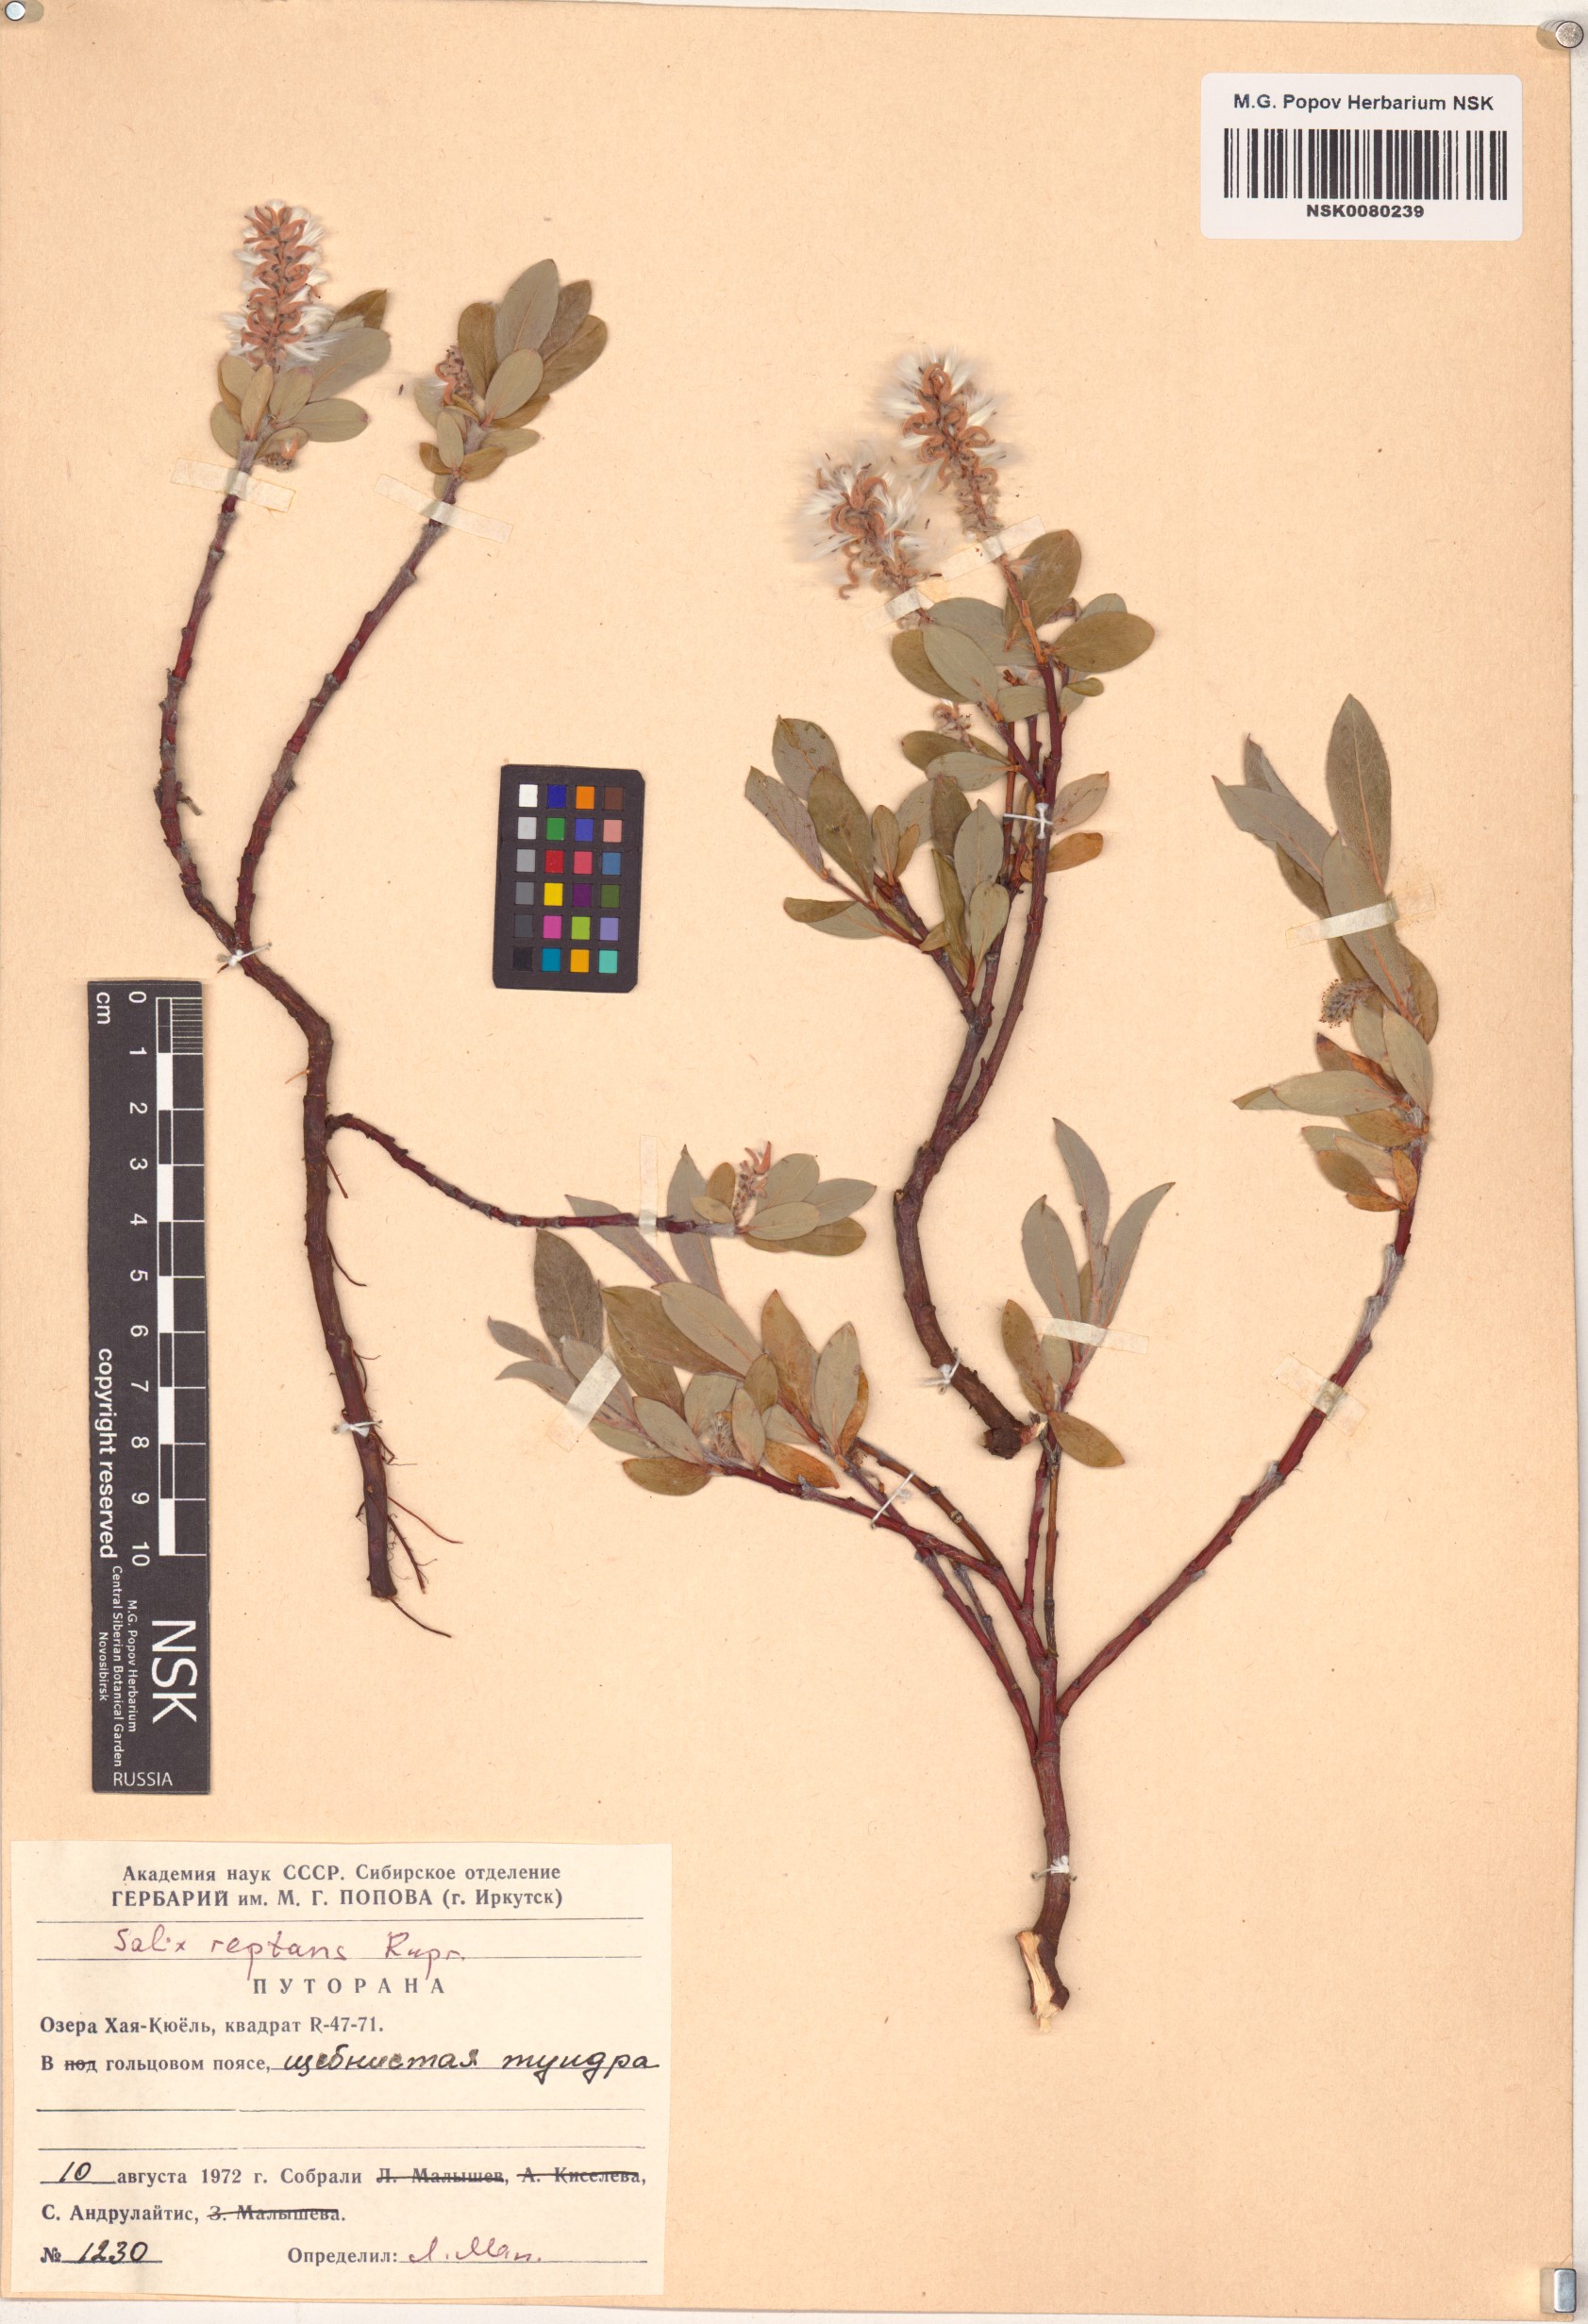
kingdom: Plantae
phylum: Tracheophyta
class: Magnoliopsida
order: Malpighiales
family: Salicaceae
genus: Salix
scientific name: Salix reptans
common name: Arctic creeping willow
